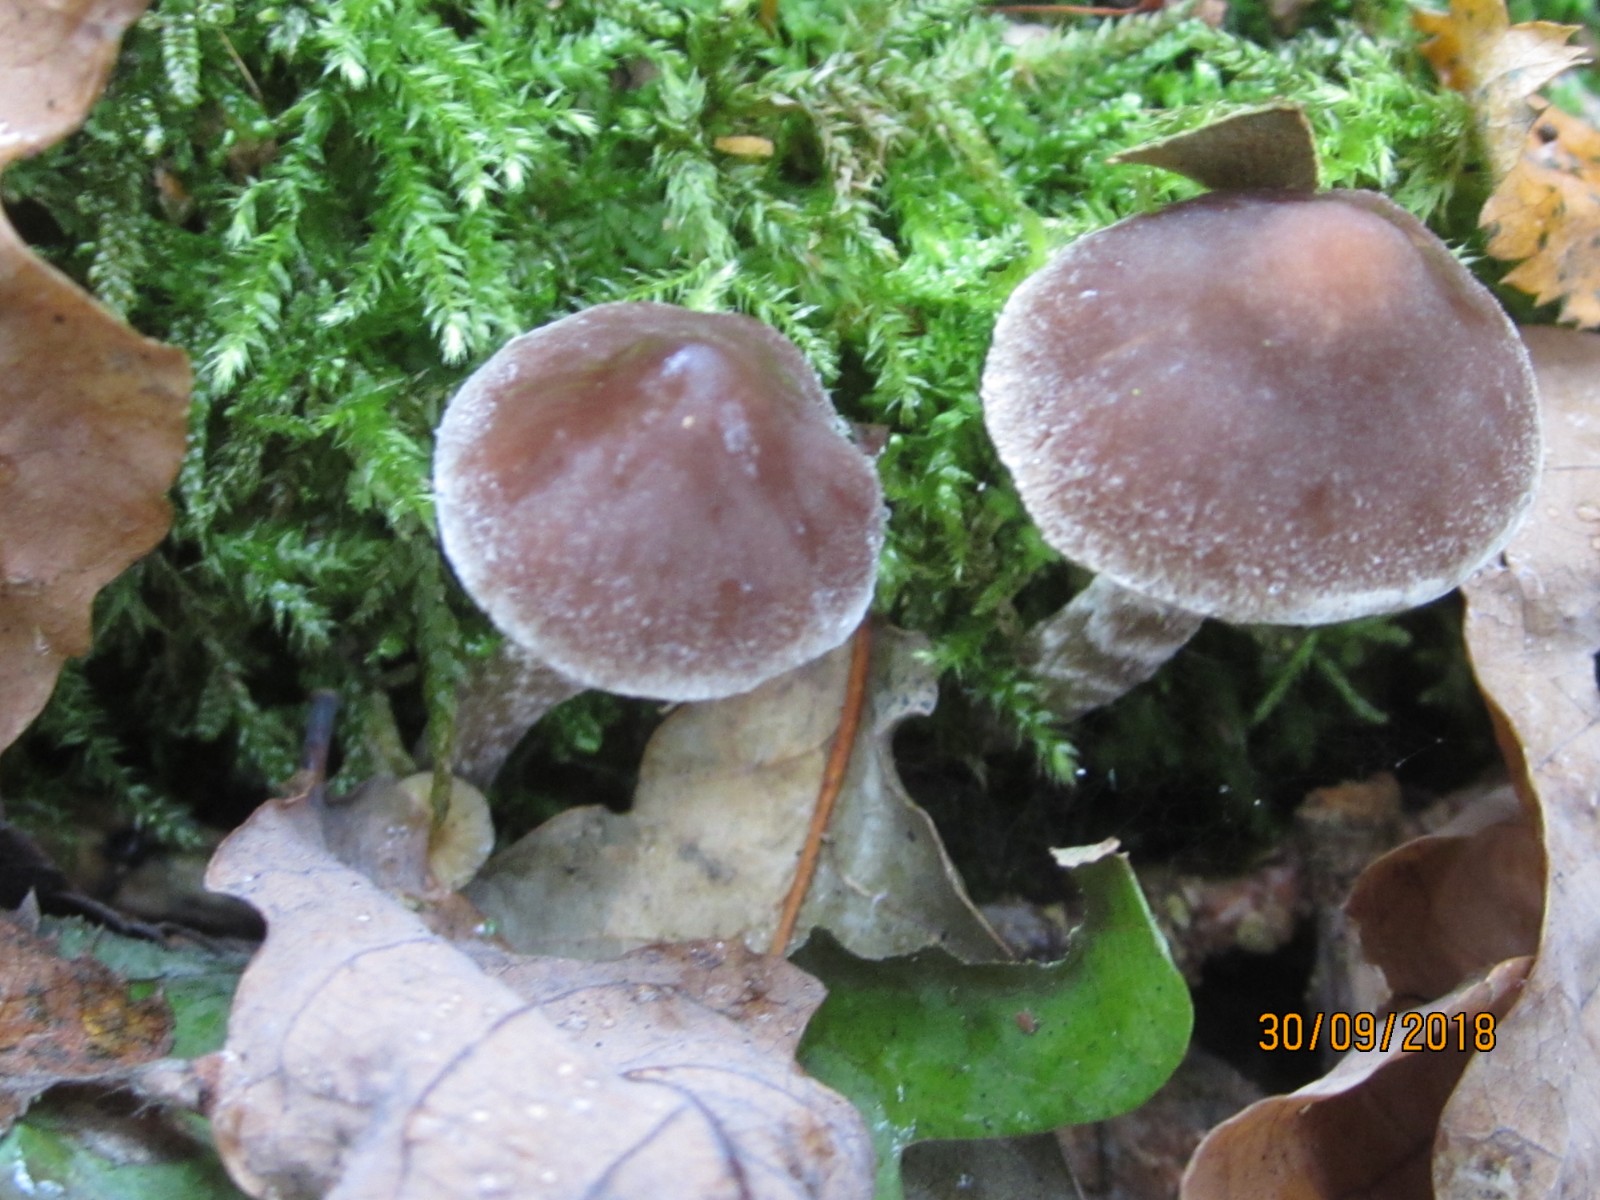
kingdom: Fungi
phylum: Basidiomycota
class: Agaricomycetes
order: Agaricales
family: Cortinariaceae
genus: Cortinarius
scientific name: Cortinarius
